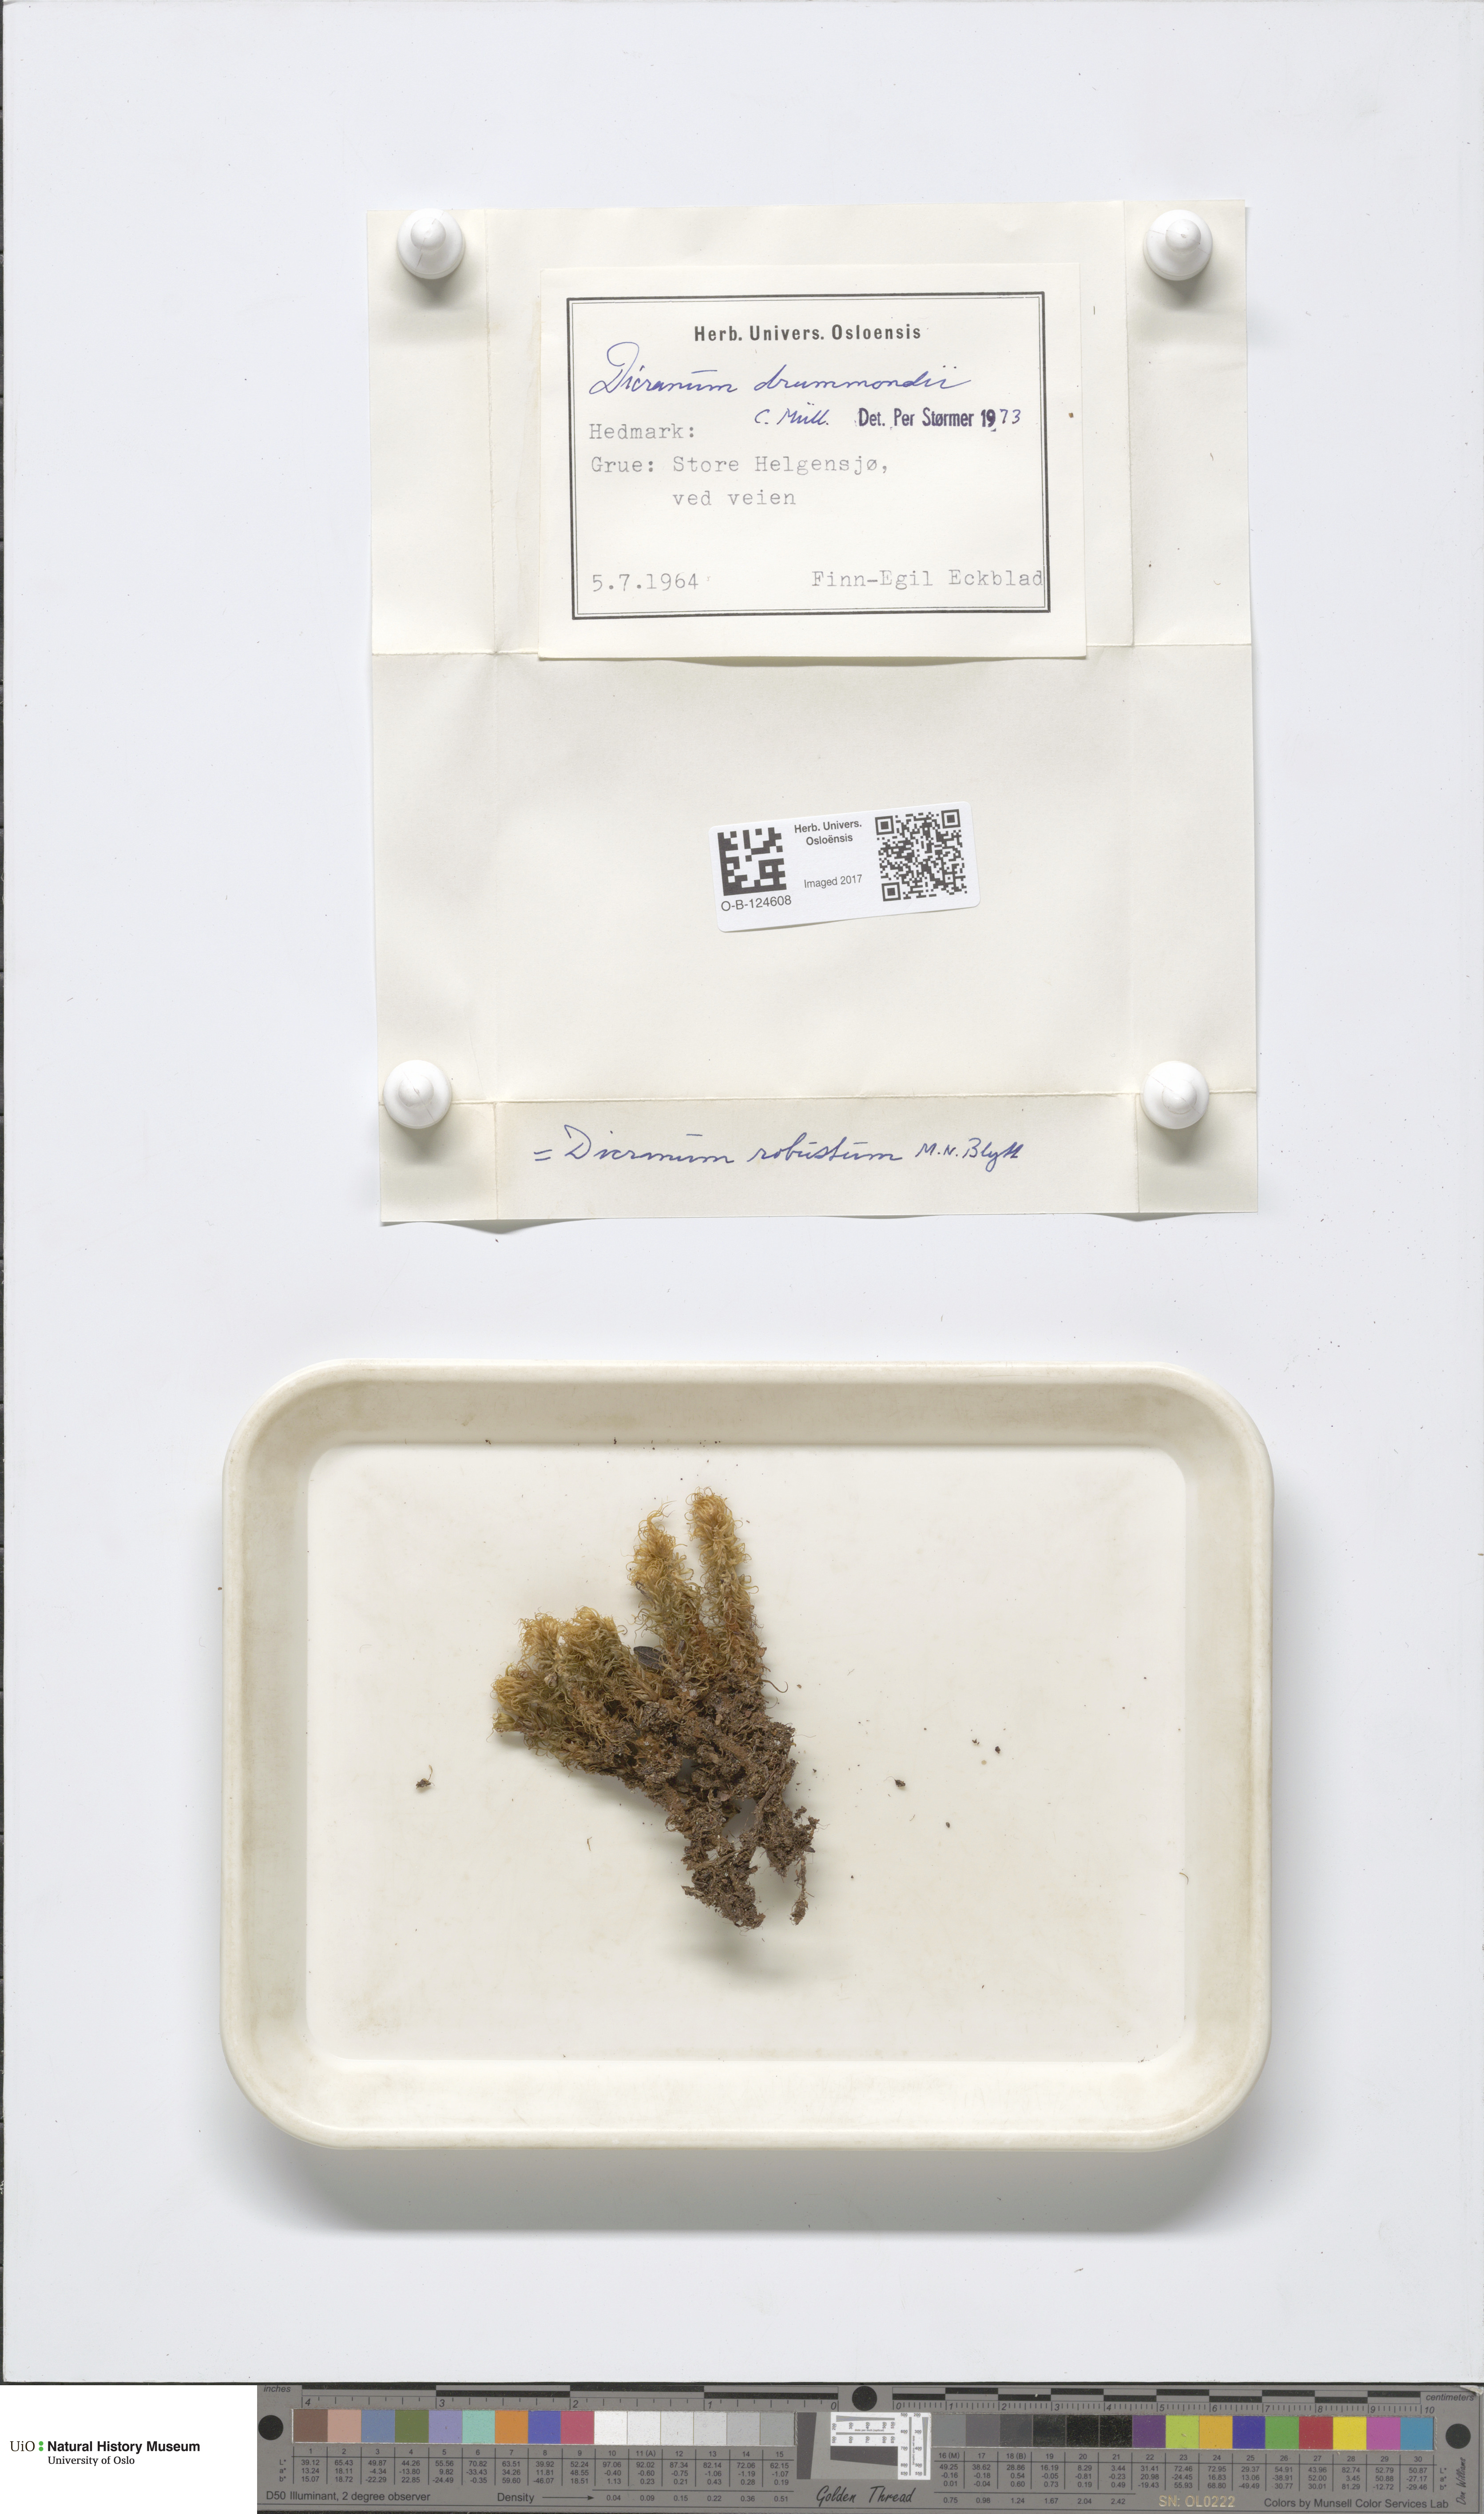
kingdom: Plantae
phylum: Bryophyta
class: Bryopsida
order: Dicranales
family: Dicranaceae
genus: Dicranum
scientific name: Dicranum drummondii
